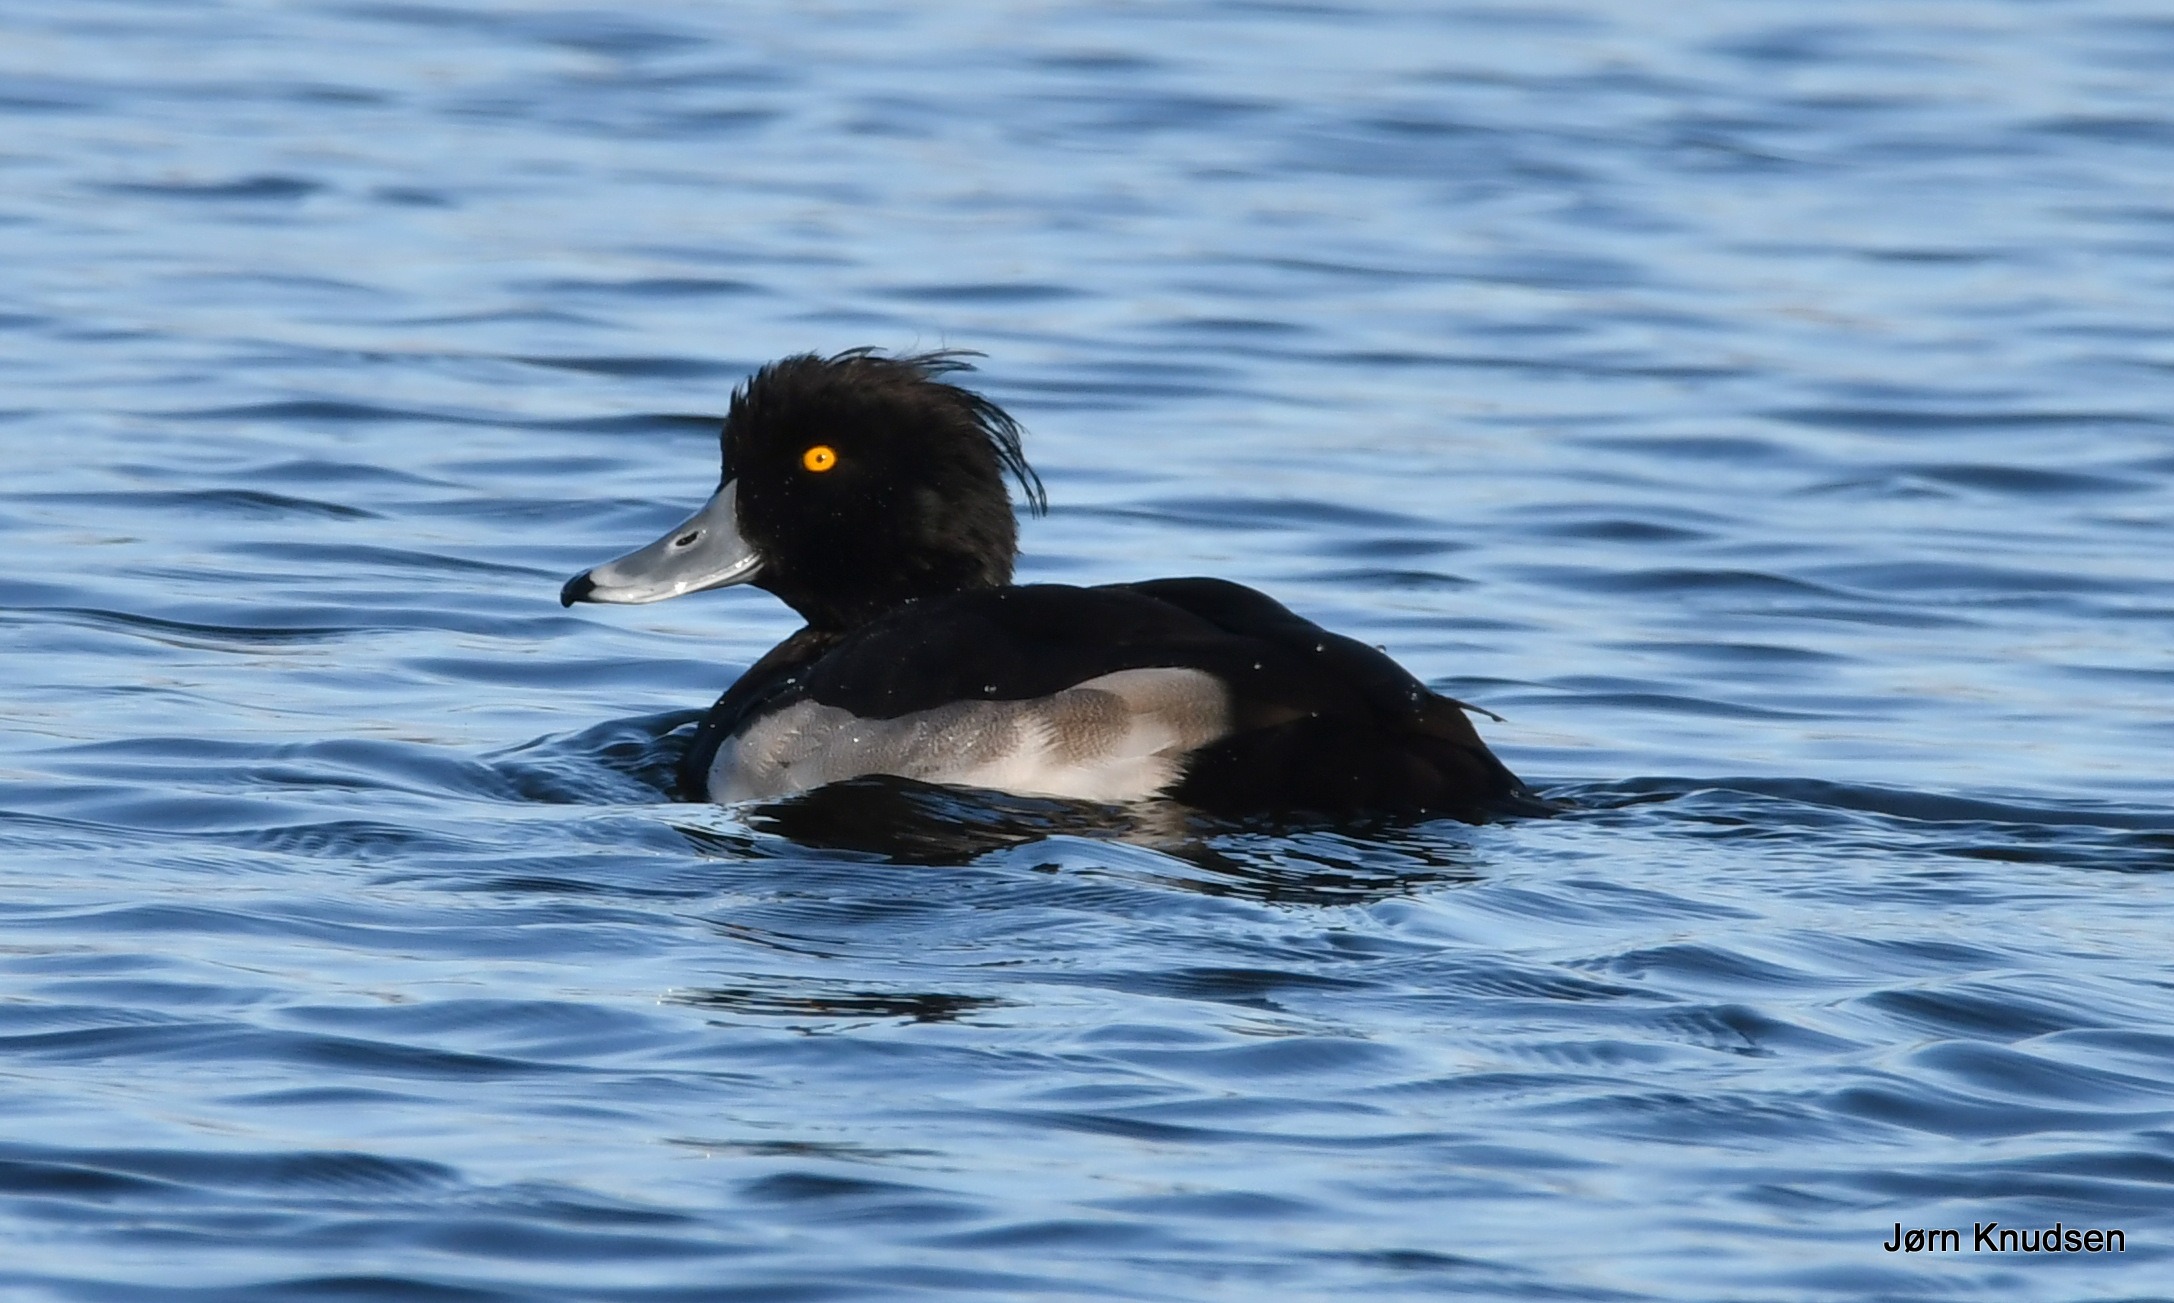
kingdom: Animalia
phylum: Chordata
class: Aves
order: Anseriformes
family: Anatidae
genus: Aythya
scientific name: Aythya fuligula
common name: Troldand
